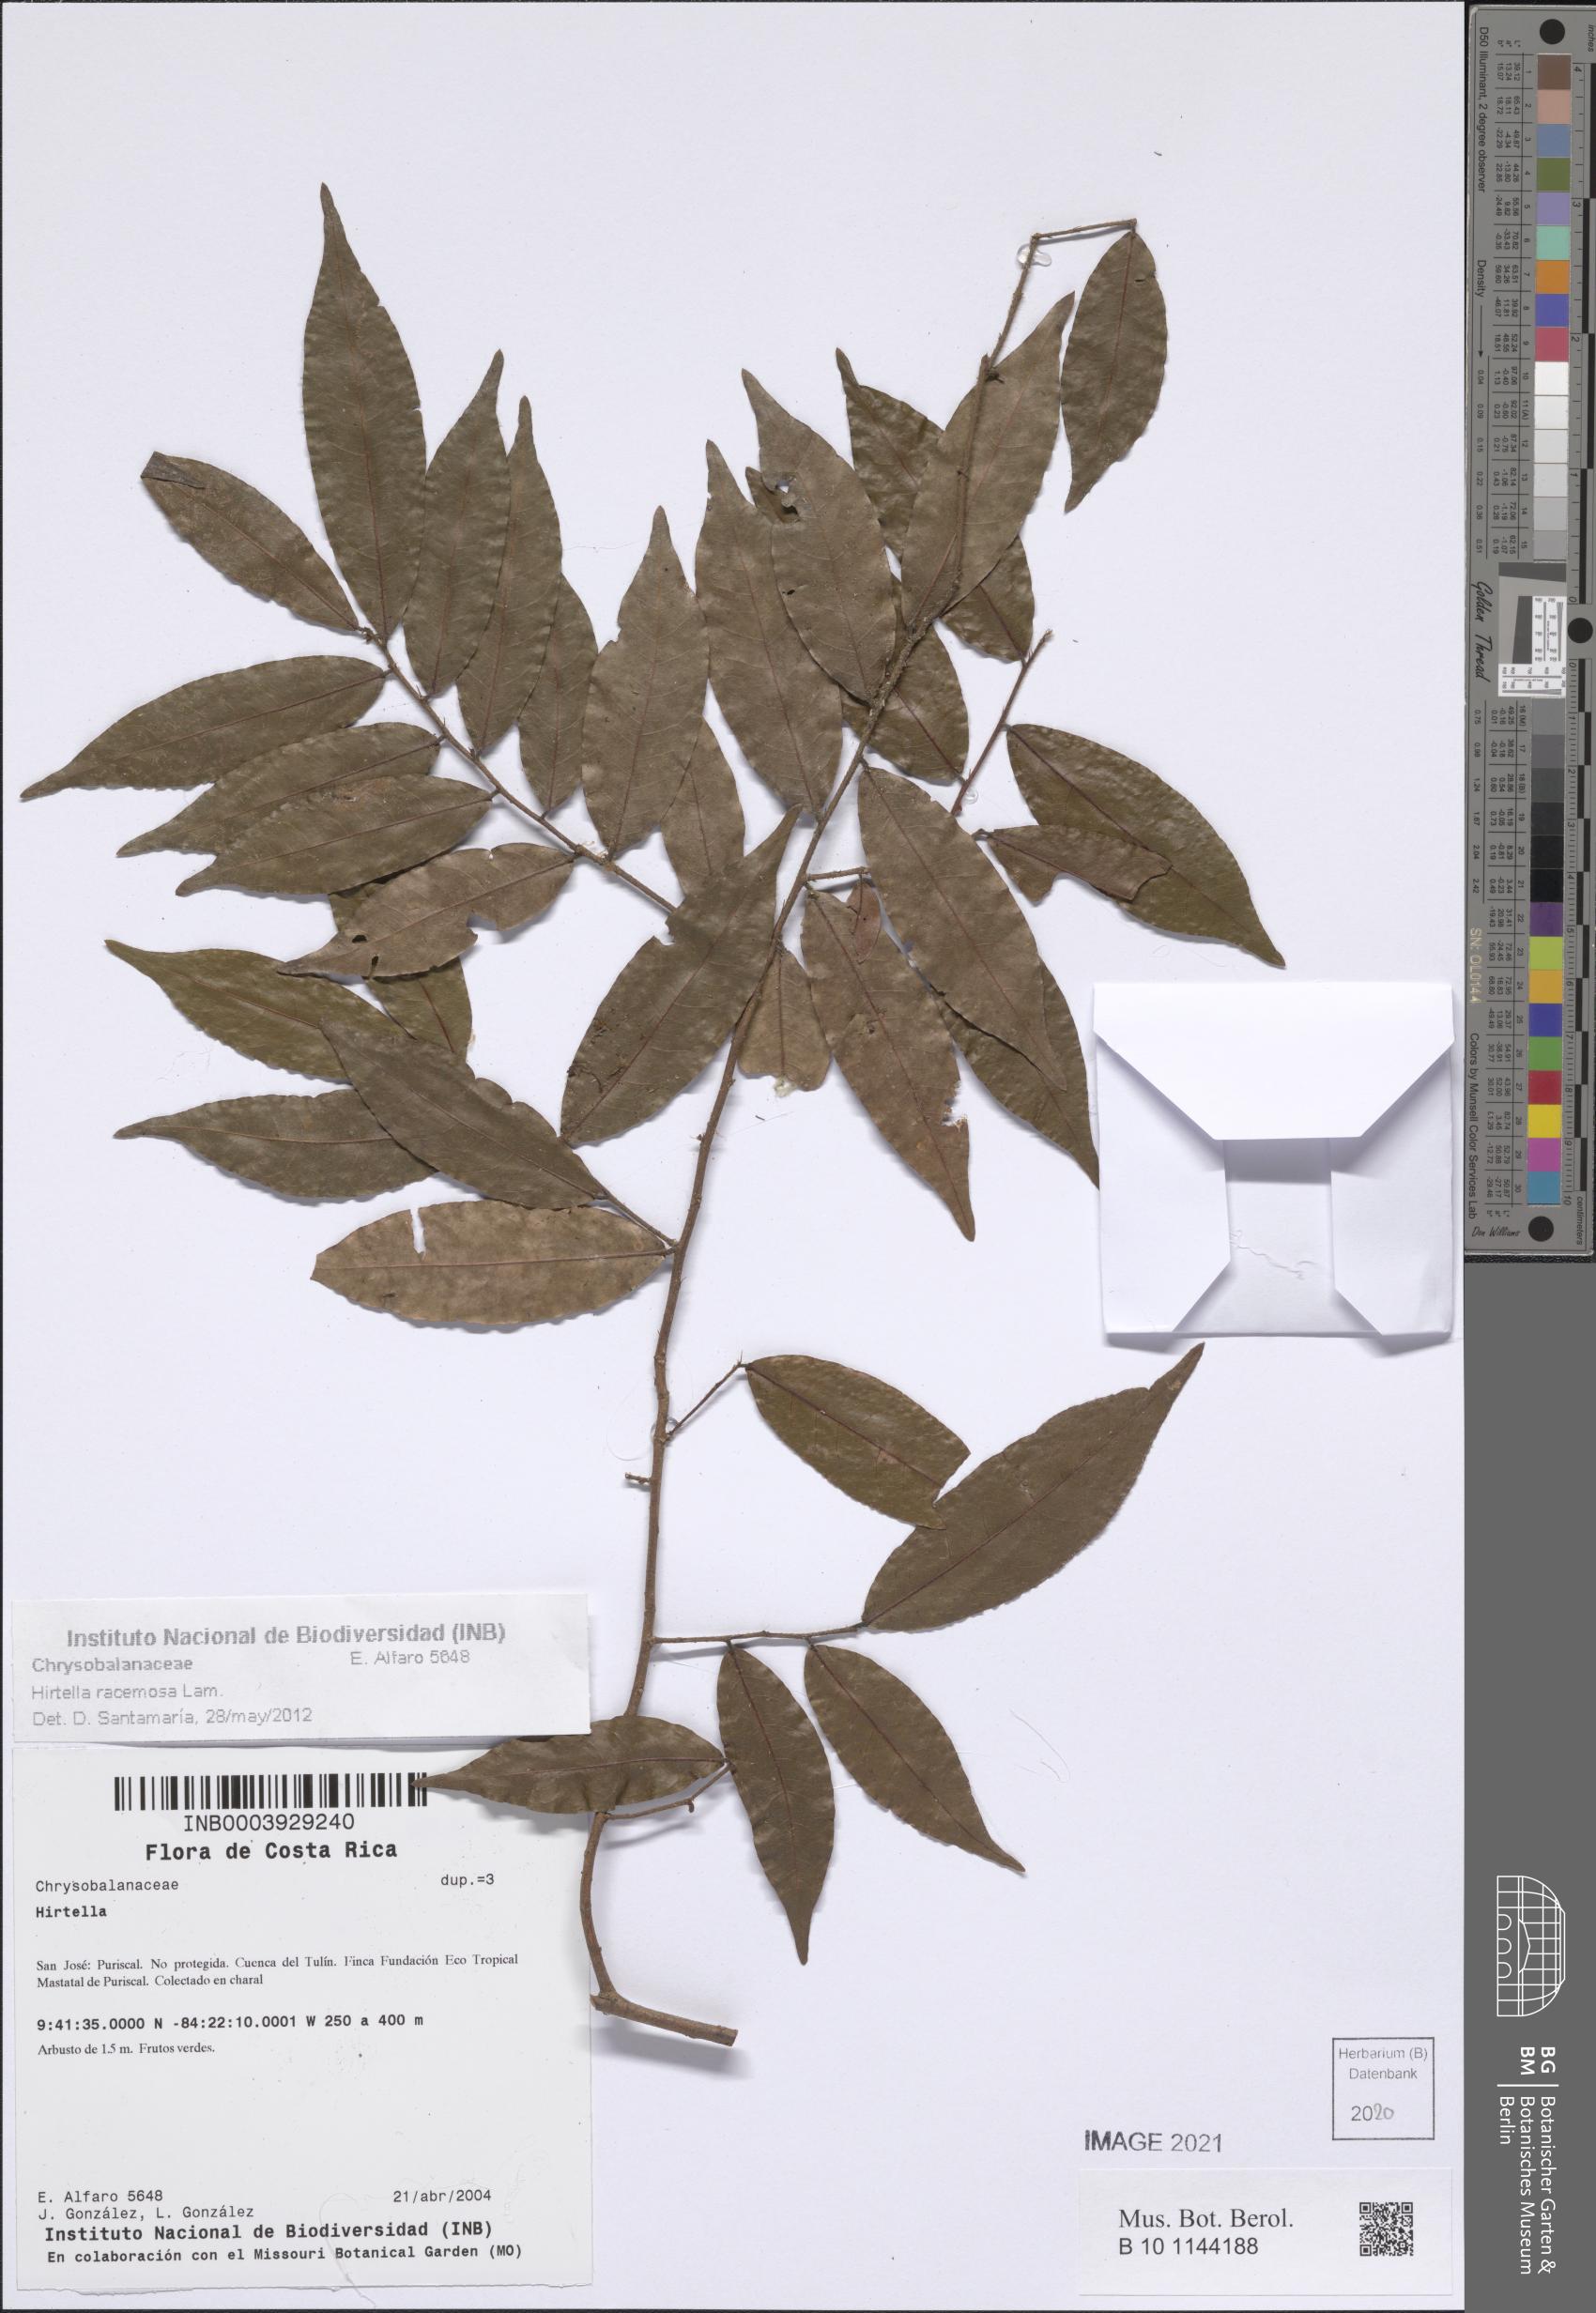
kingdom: Plantae
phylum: Tracheophyta
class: Magnoliopsida
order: Malpighiales
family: Chrysobalanaceae
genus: Hirtella
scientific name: Hirtella racemosa
